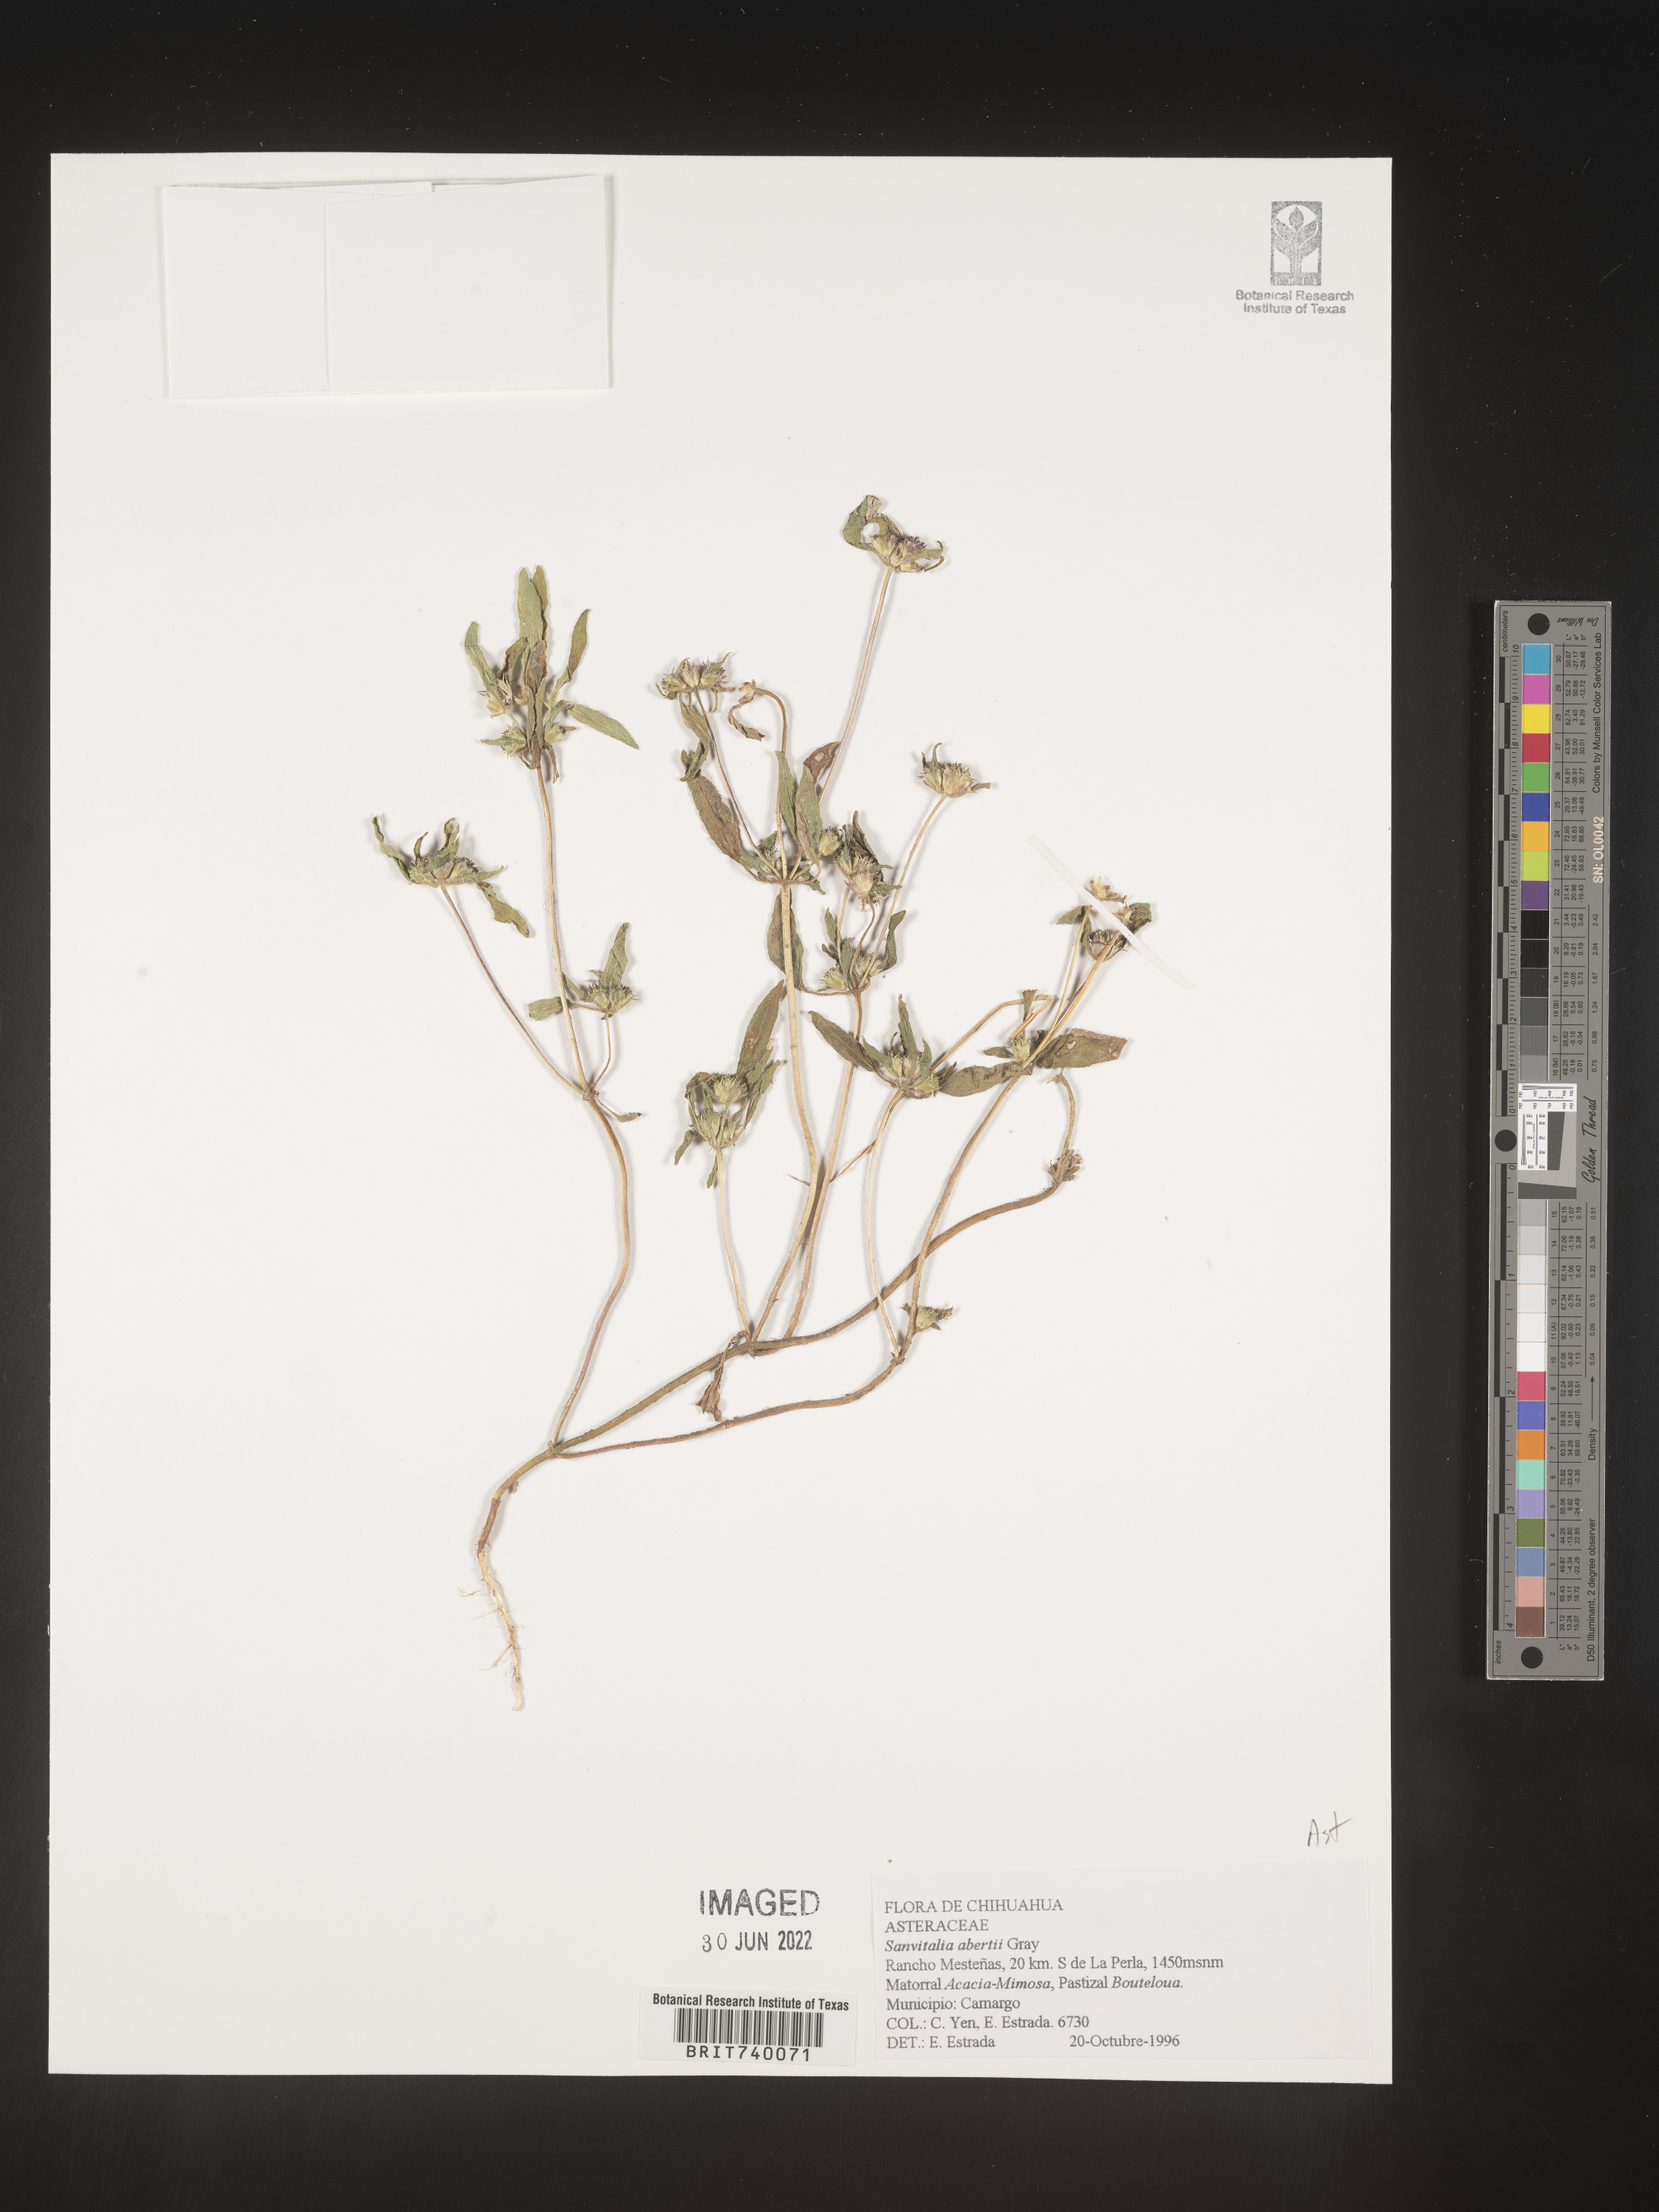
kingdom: Plantae
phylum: Tracheophyta
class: Magnoliopsida
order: Asterales
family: Asteraceae
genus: Sanvitalia
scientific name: Sanvitalia
